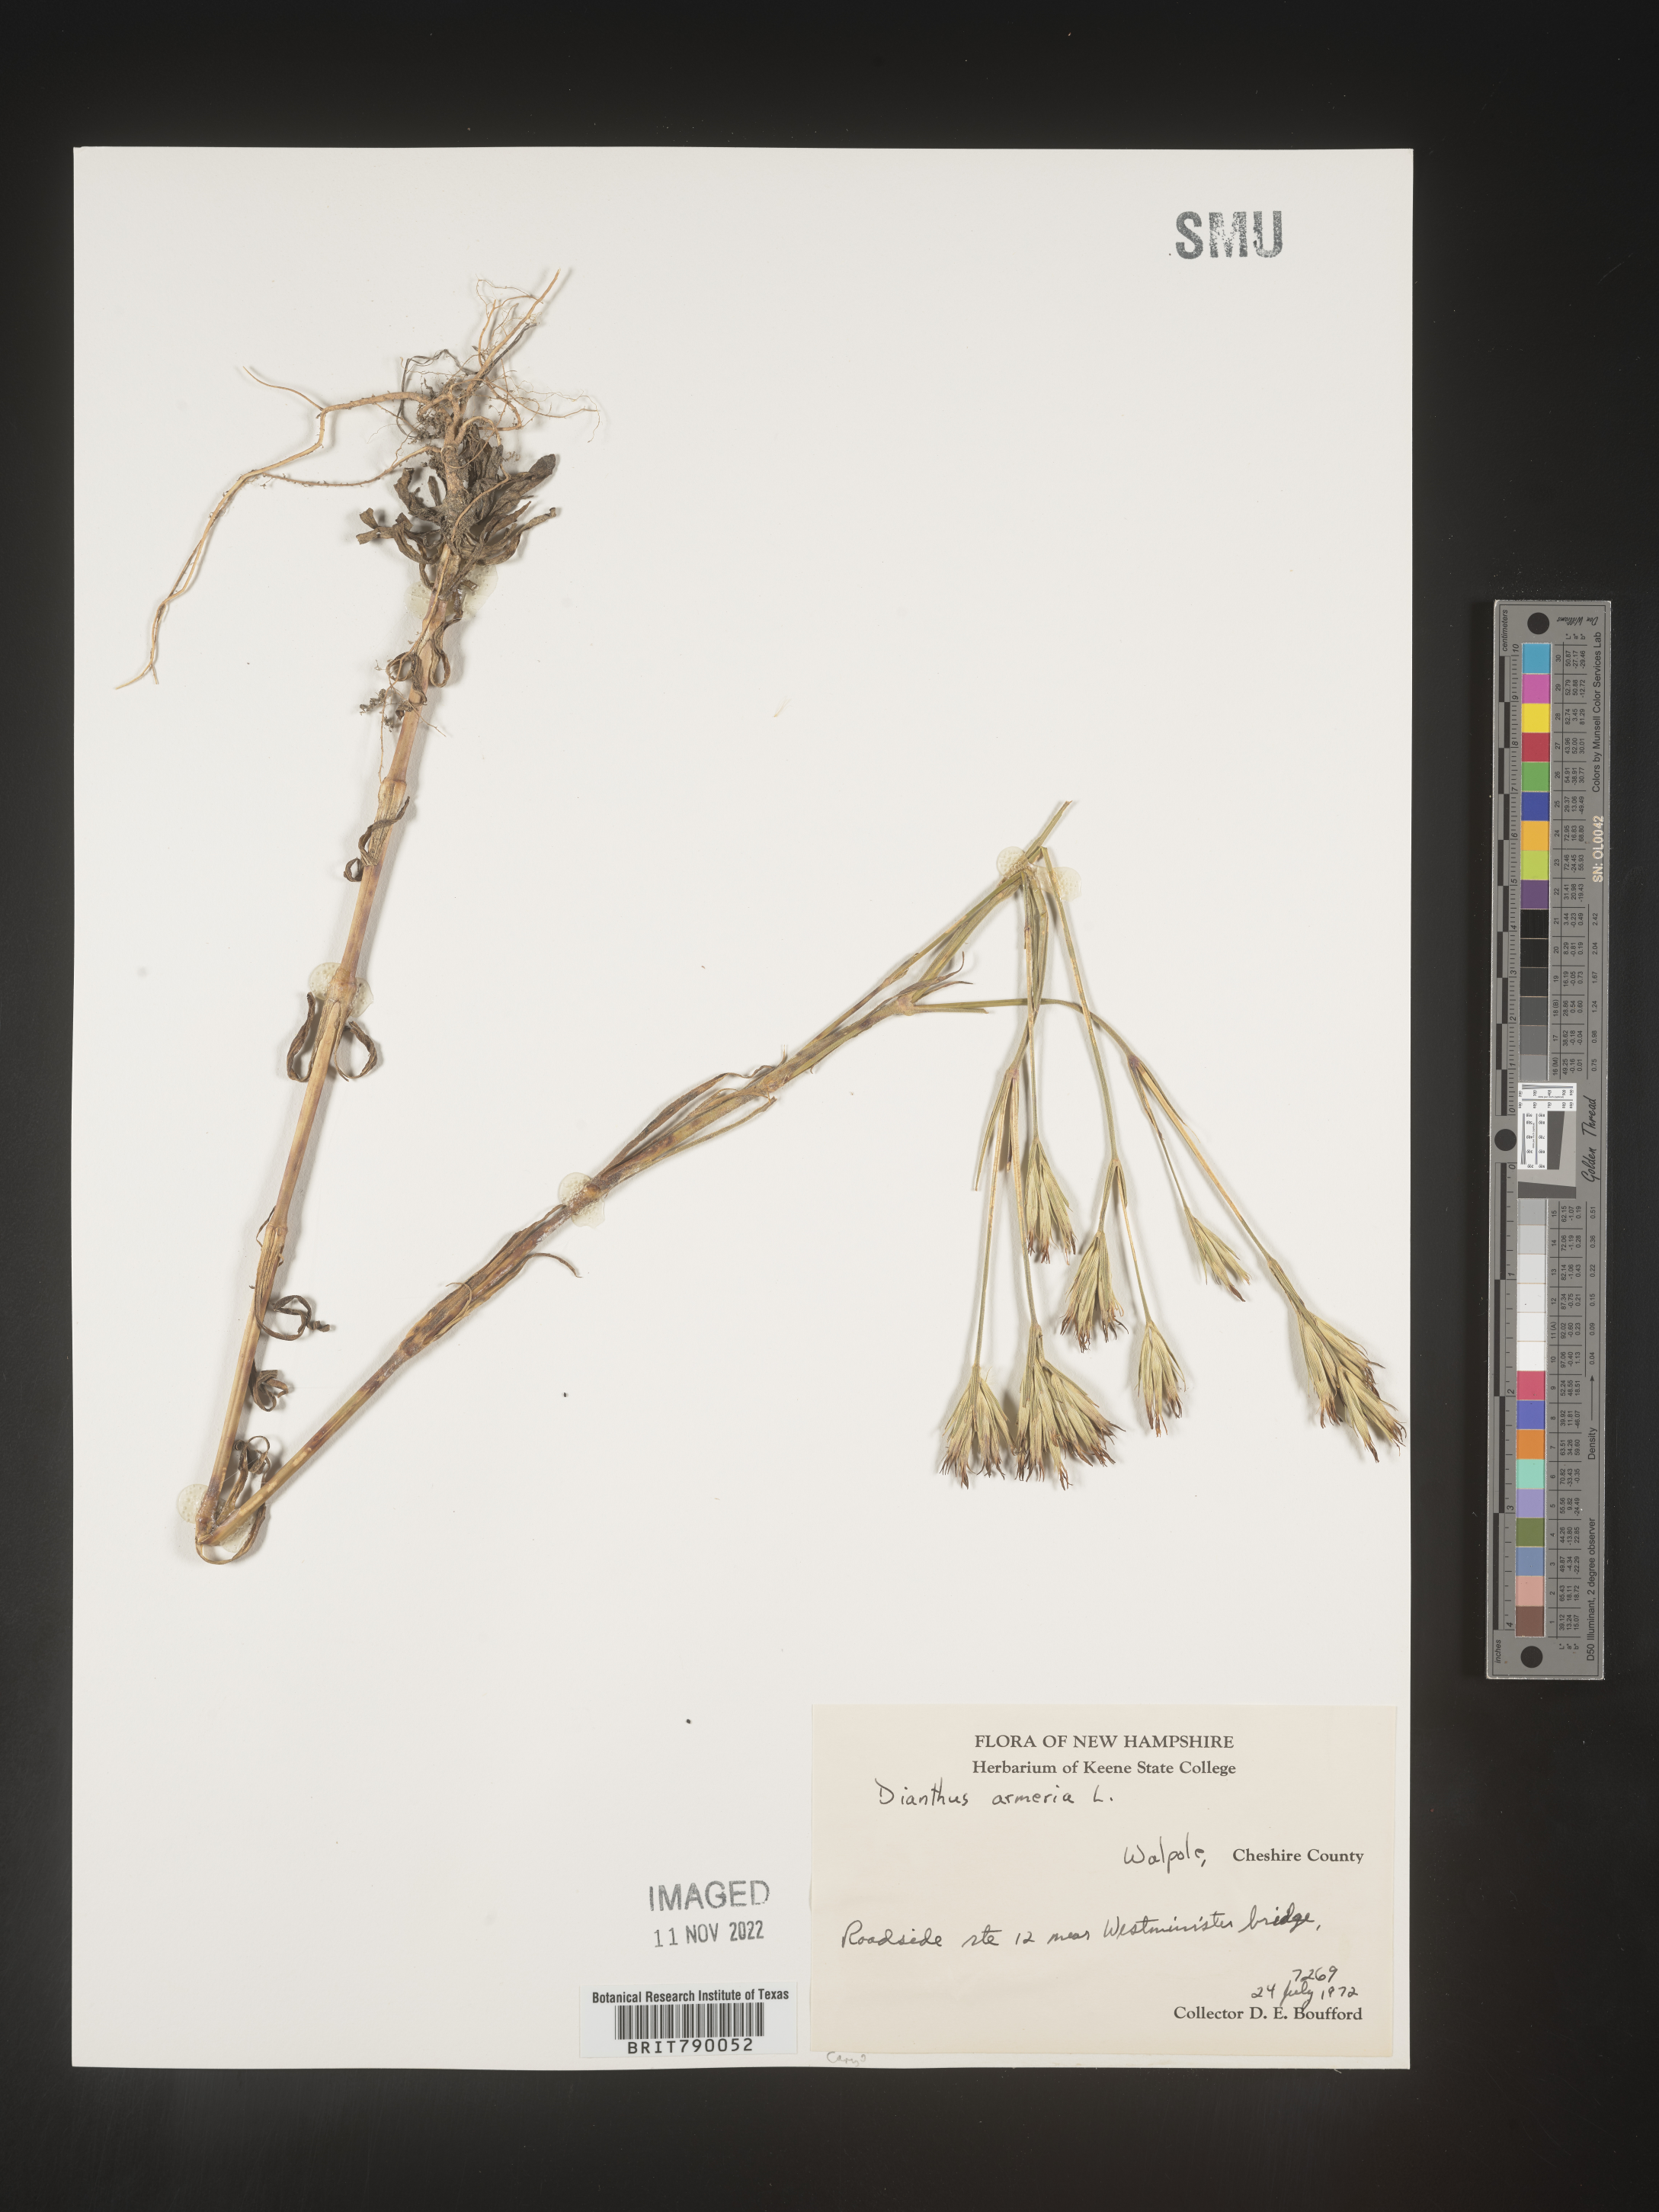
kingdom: Plantae
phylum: Tracheophyta
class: Magnoliopsida
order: Caryophyllales
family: Caryophyllaceae
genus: Dianthus
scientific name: Dianthus armeria
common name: Deptford pink
